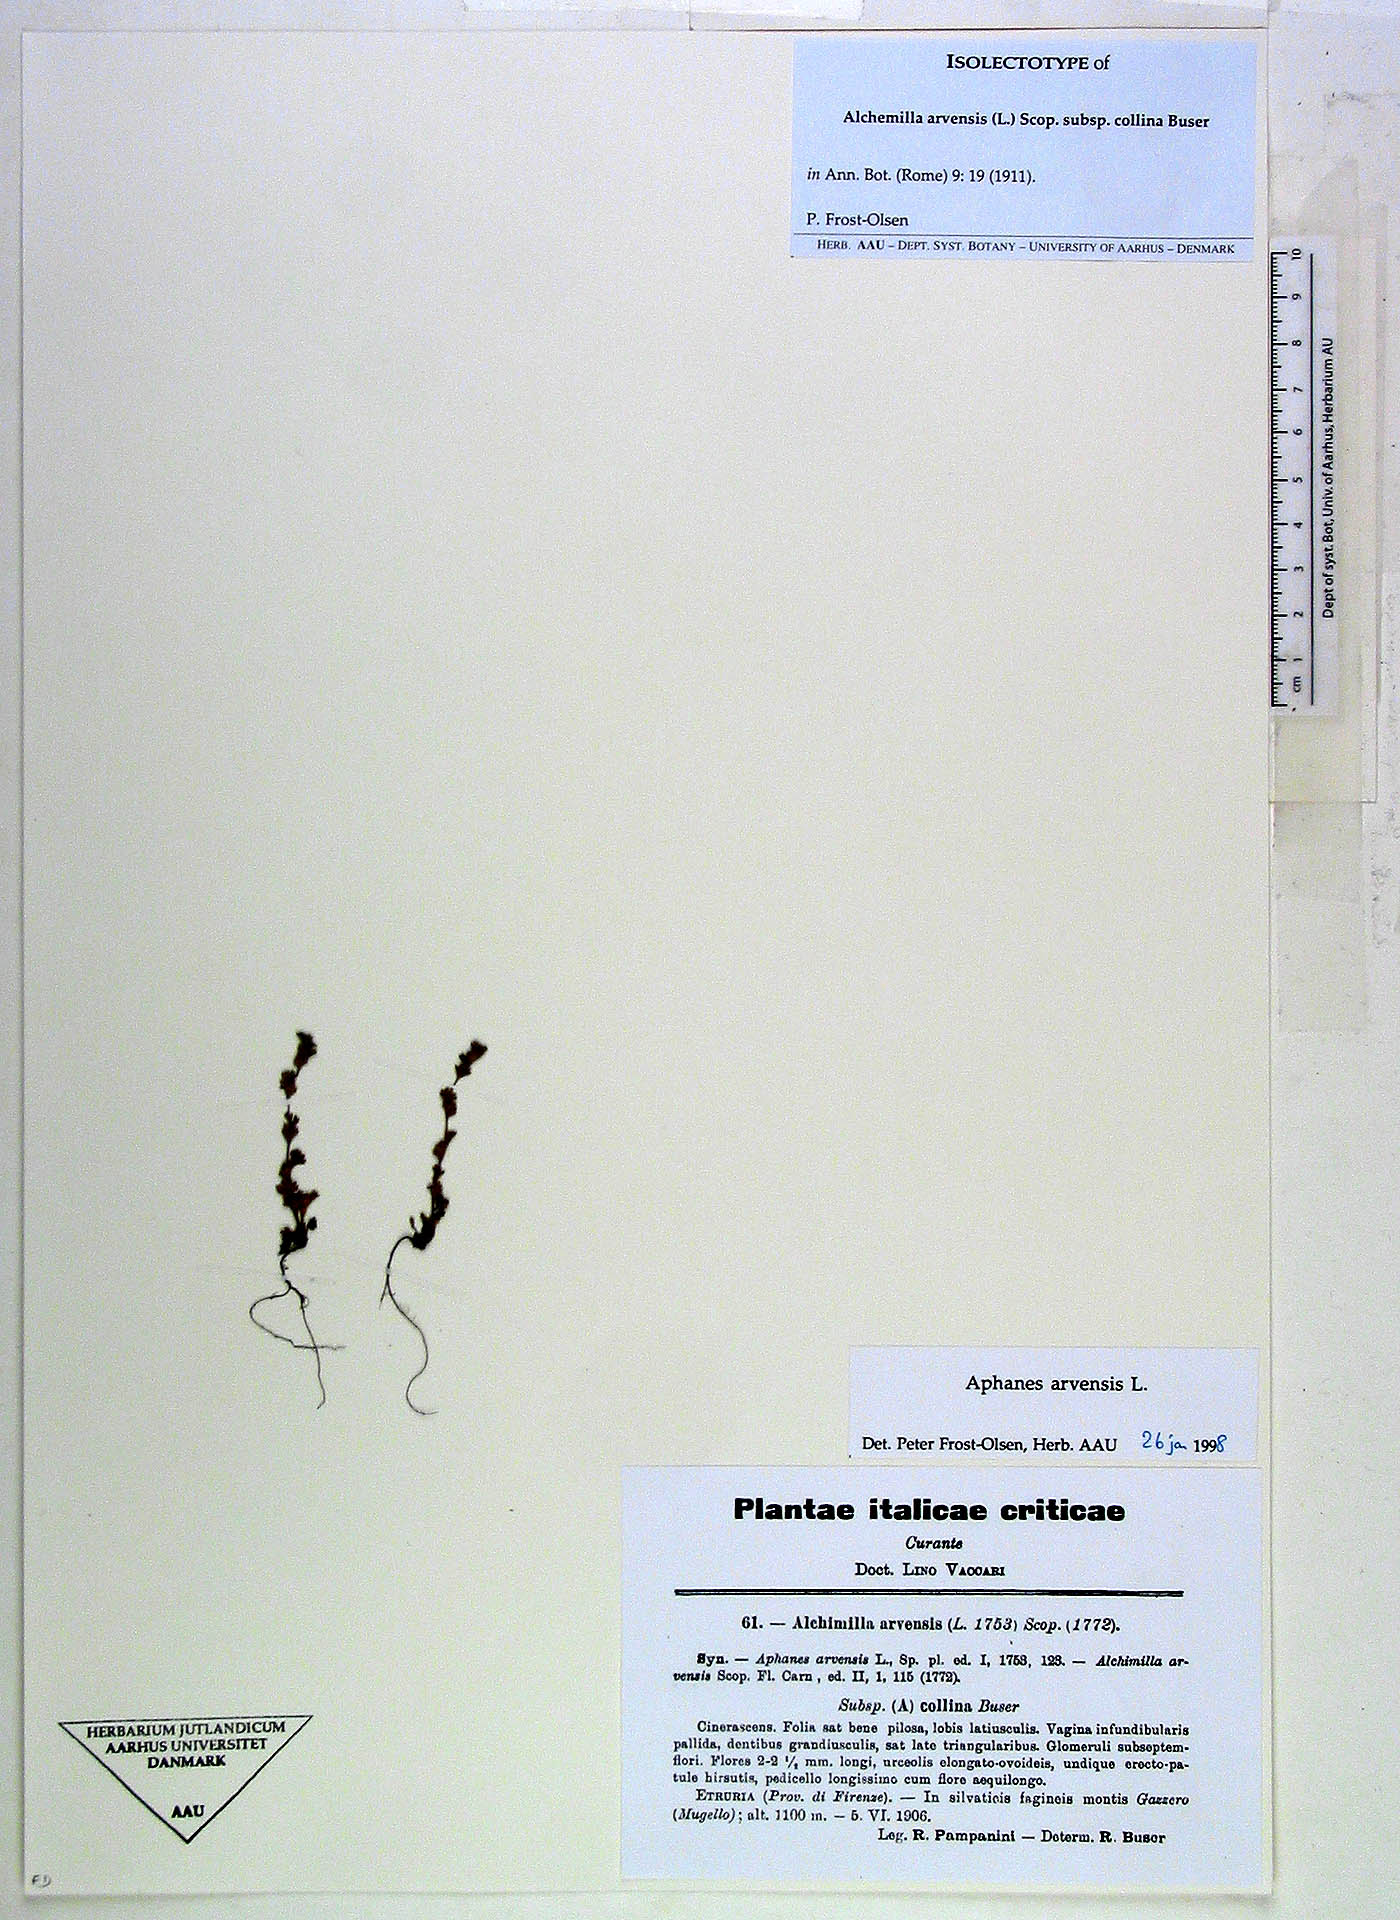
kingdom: Plantae
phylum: Tracheophyta
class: Magnoliopsida
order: Rosales
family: Rosaceae
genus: Aphanes
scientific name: Aphanes arvensis
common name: Parsley-piert
